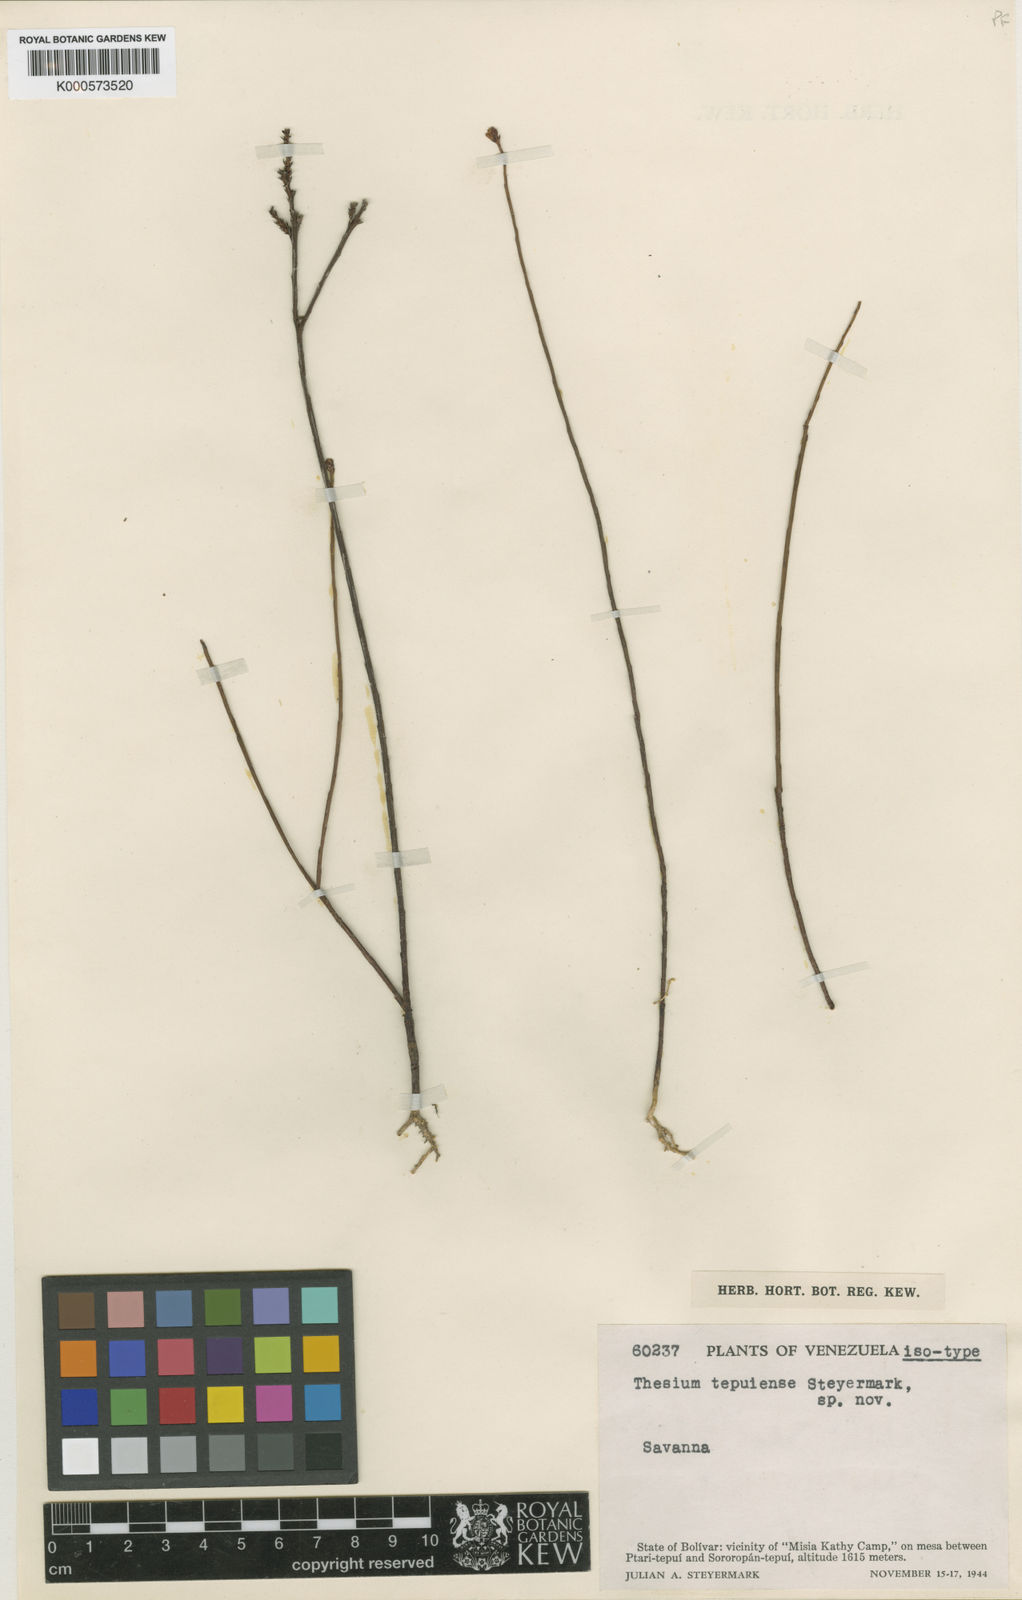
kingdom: Plantae
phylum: Tracheophyta
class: Magnoliopsida
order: Santalales
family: Thesiaceae
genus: Austroamericium
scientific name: Austroamericium tepuiense
